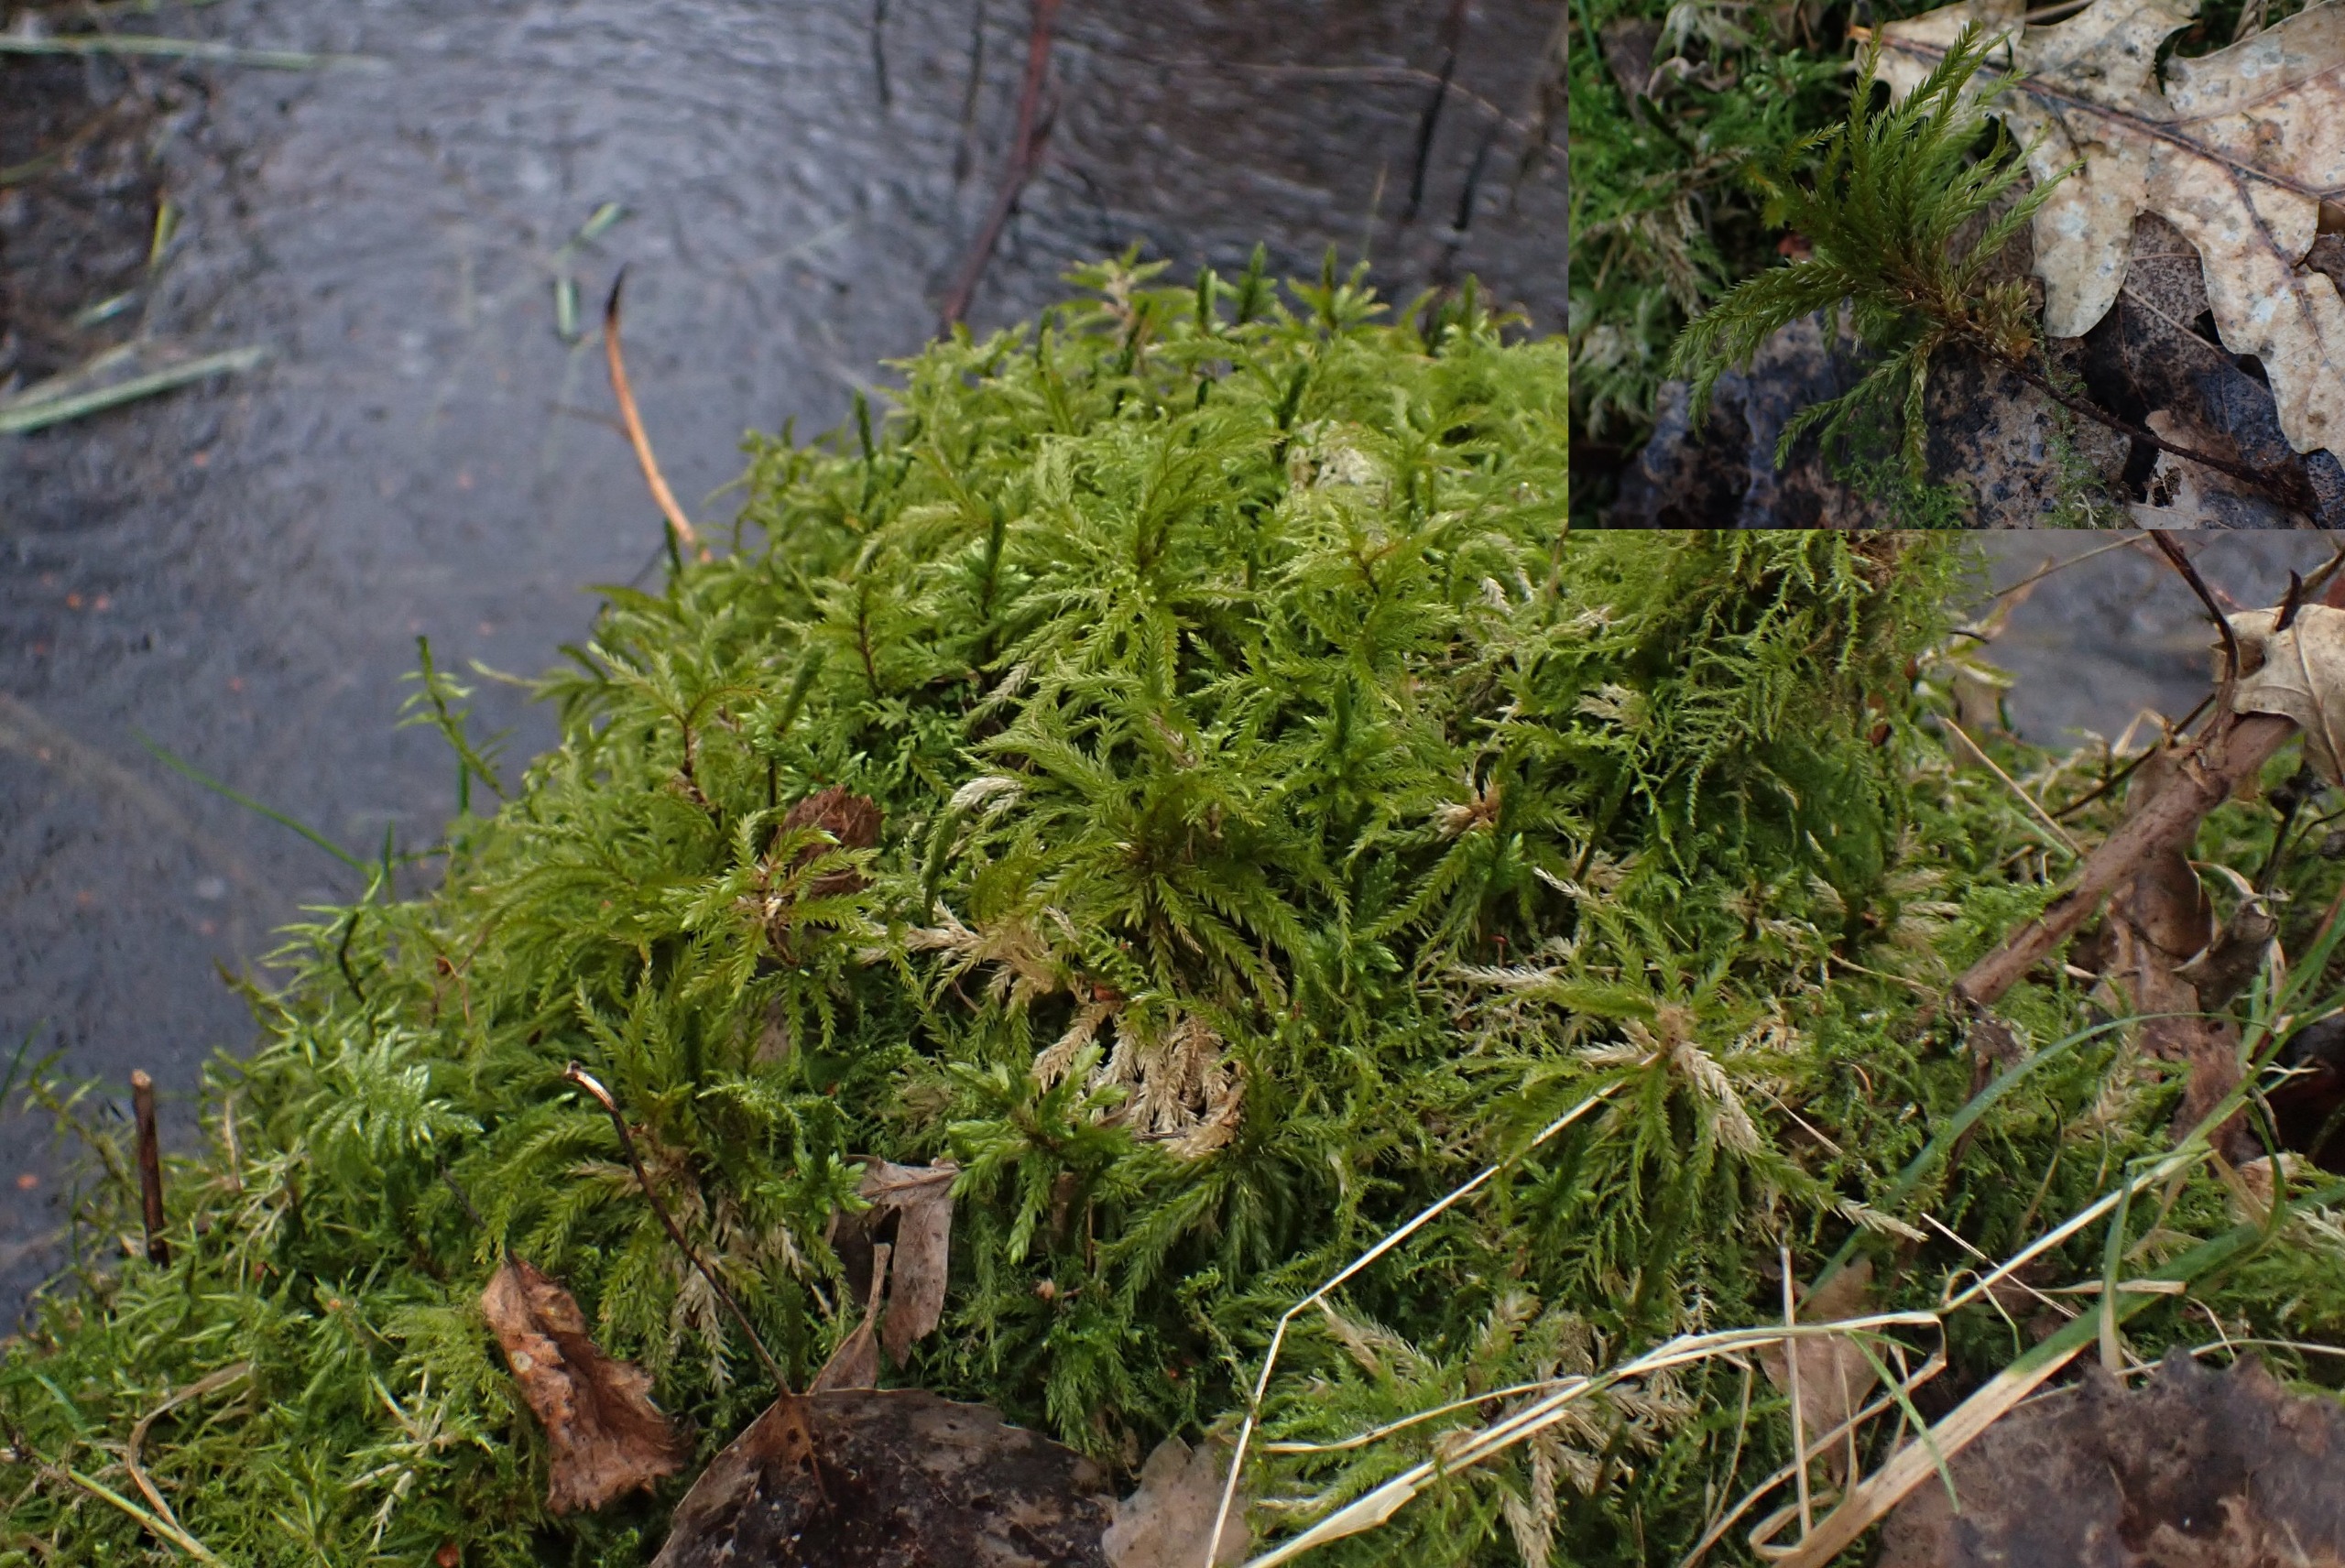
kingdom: Plantae
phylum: Bryophyta
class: Bryopsida
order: Hypnales
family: Climaciaceae
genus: Climacium
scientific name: Climacium dendroides
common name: Stor engkost
